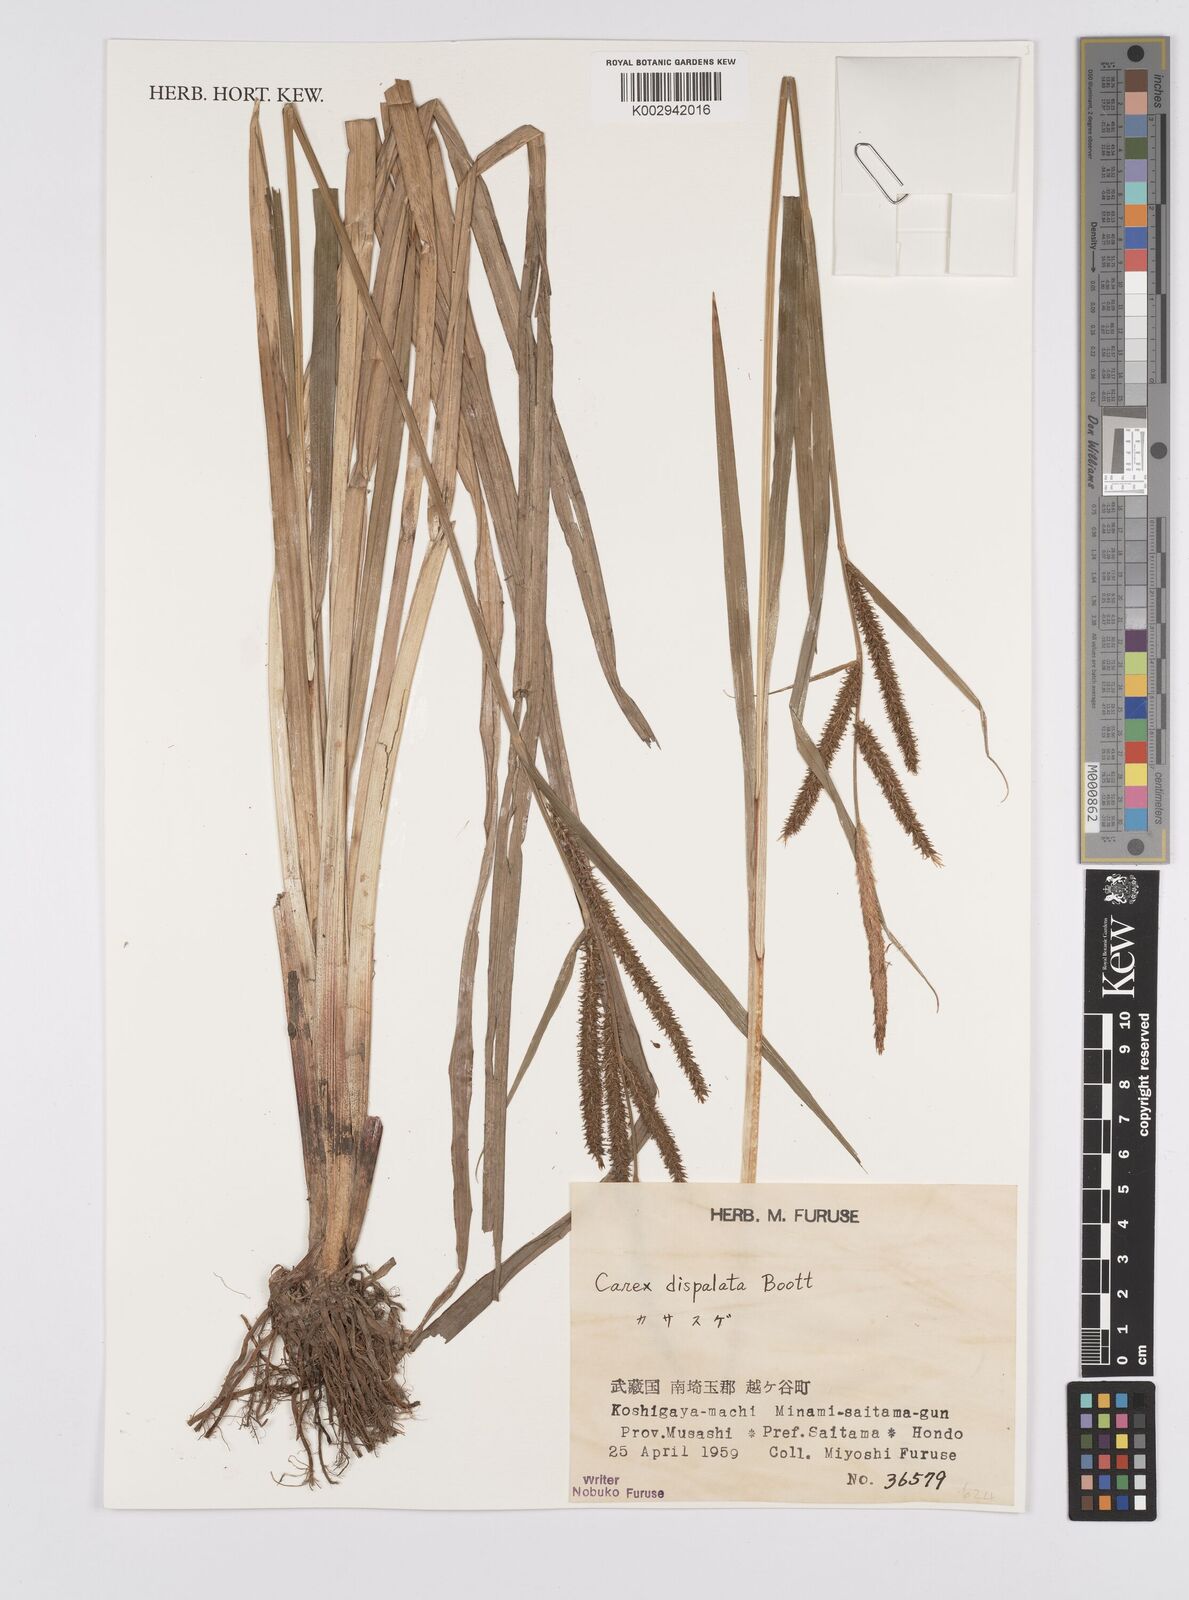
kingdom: Plantae
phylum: Tracheophyta
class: Liliopsida
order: Poales
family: Cyperaceae
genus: Carex
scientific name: Carex dispalata
